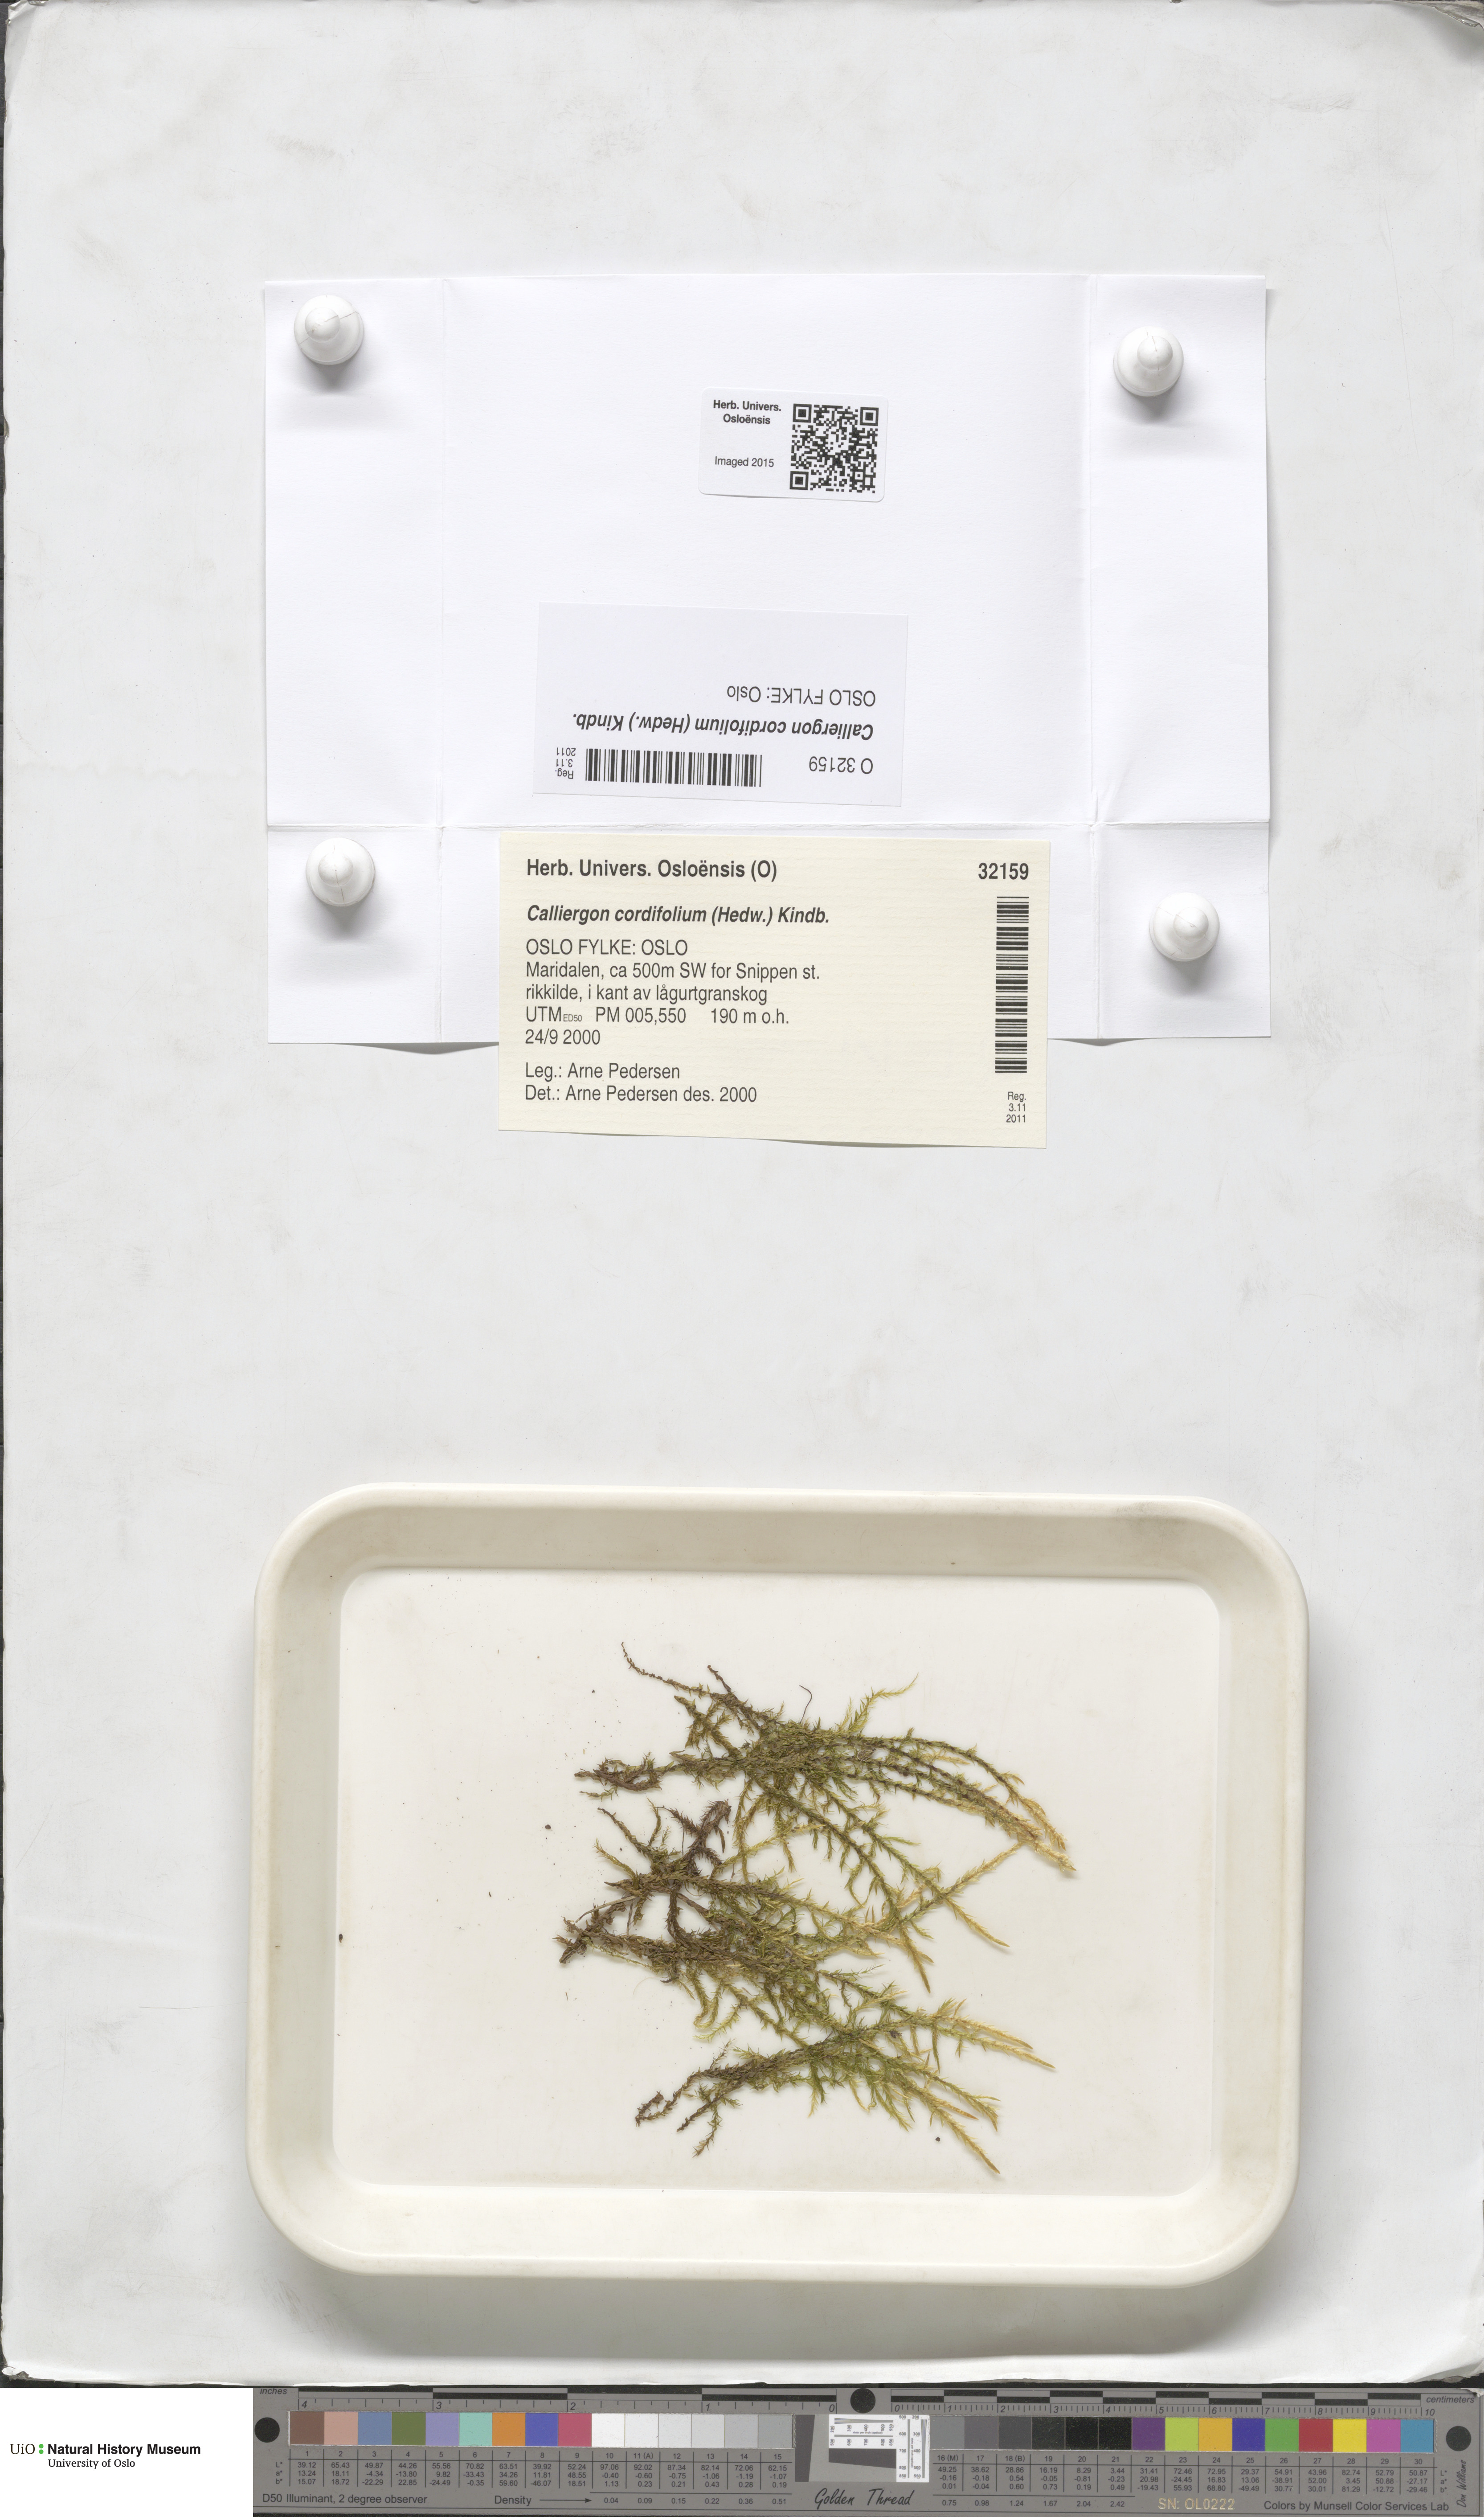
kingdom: Plantae
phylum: Bryophyta
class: Bryopsida
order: Hypnales
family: Calliergonaceae
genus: Calliergon
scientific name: Calliergon cordifolium
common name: Heart-leaved spear moss
